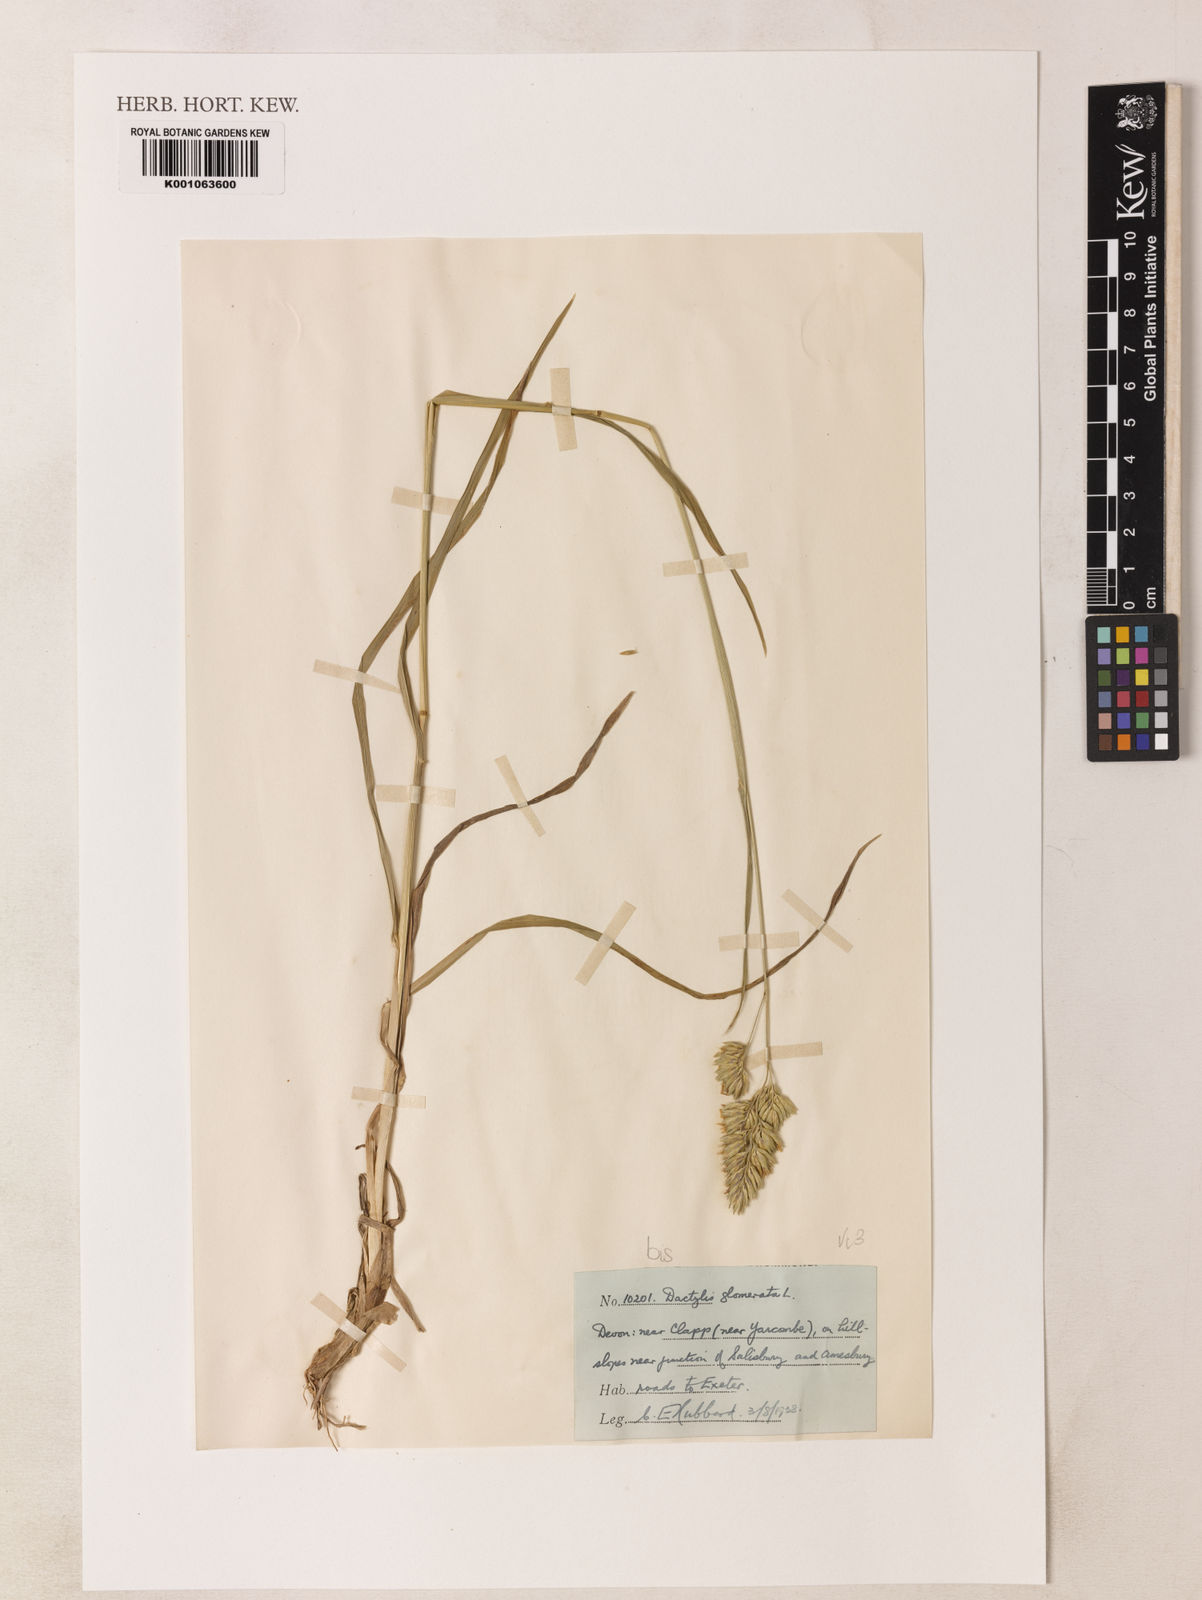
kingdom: Plantae
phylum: Tracheophyta
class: Liliopsida
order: Poales
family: Poaceae
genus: Dactylis
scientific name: Dactylis glomerata
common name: Orchardgrass
